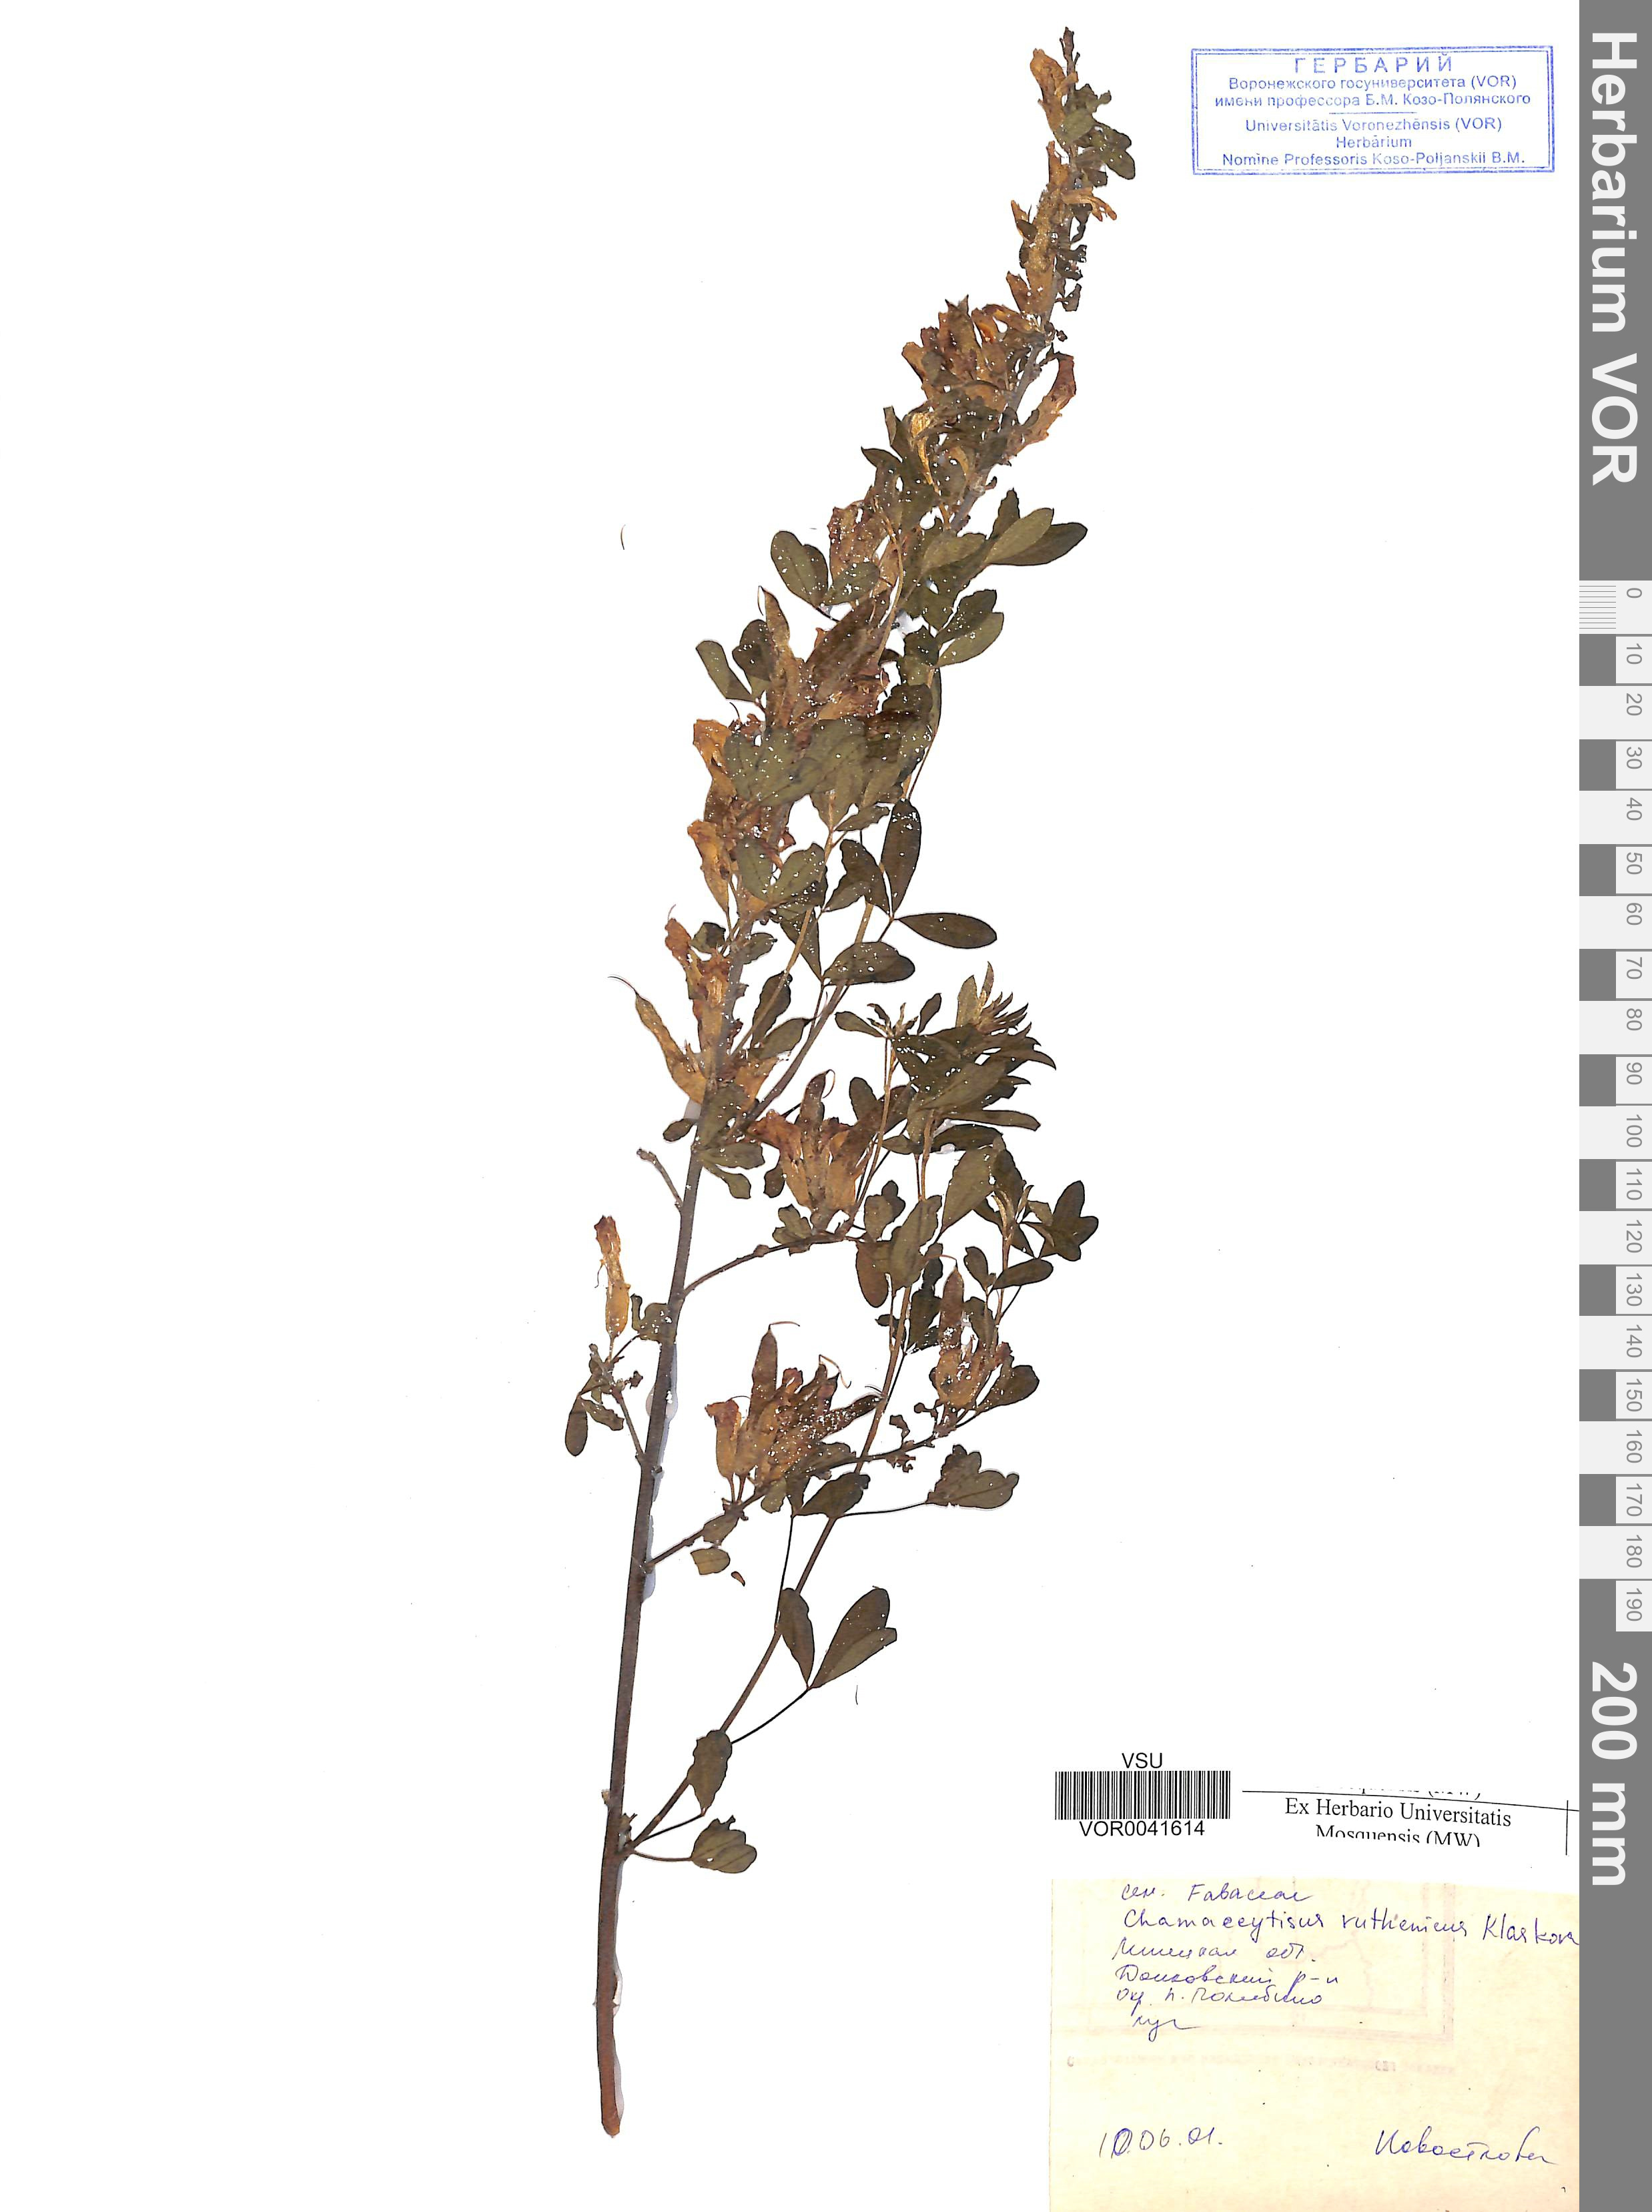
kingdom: Plantae
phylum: Tracheophyta
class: Magnoliopsida
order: Fabales
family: Fabaceae
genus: Chamaecytisus
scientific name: Chamaecytisus ruthenicus
